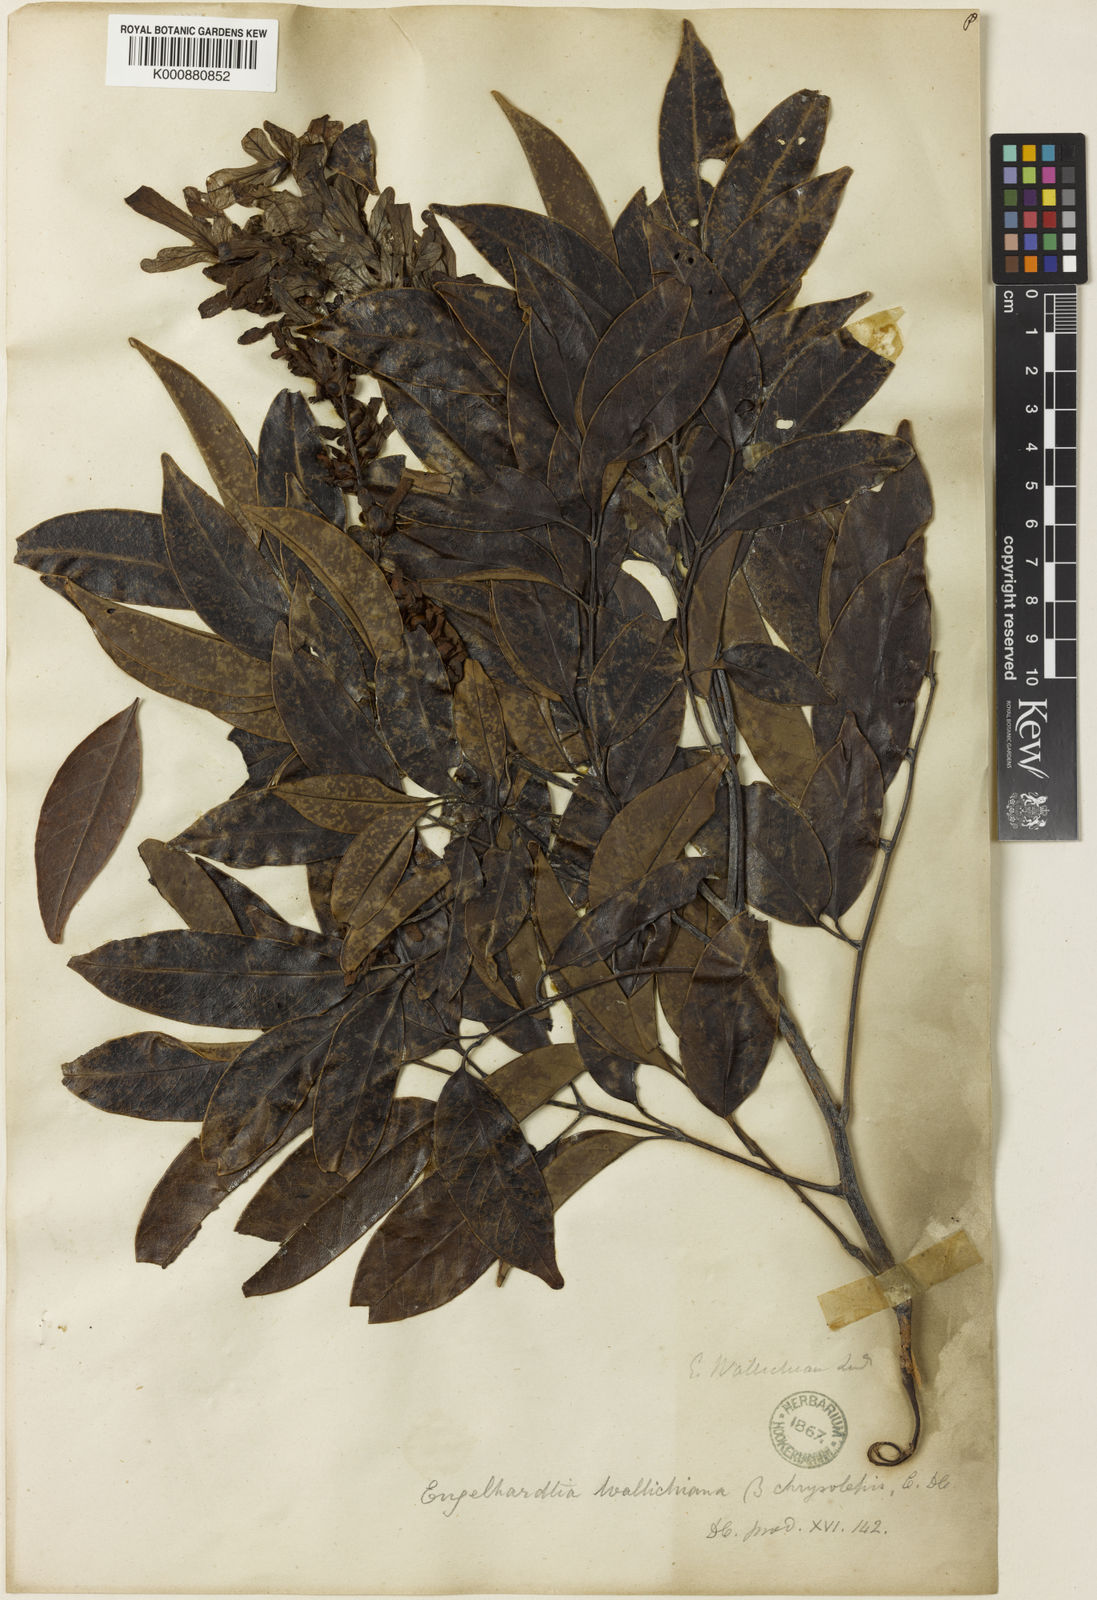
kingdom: Plantae
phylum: Tracheophyta
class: Magnoliopsida
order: Fagales
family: Juglandaceae
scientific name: Juglandaceae
